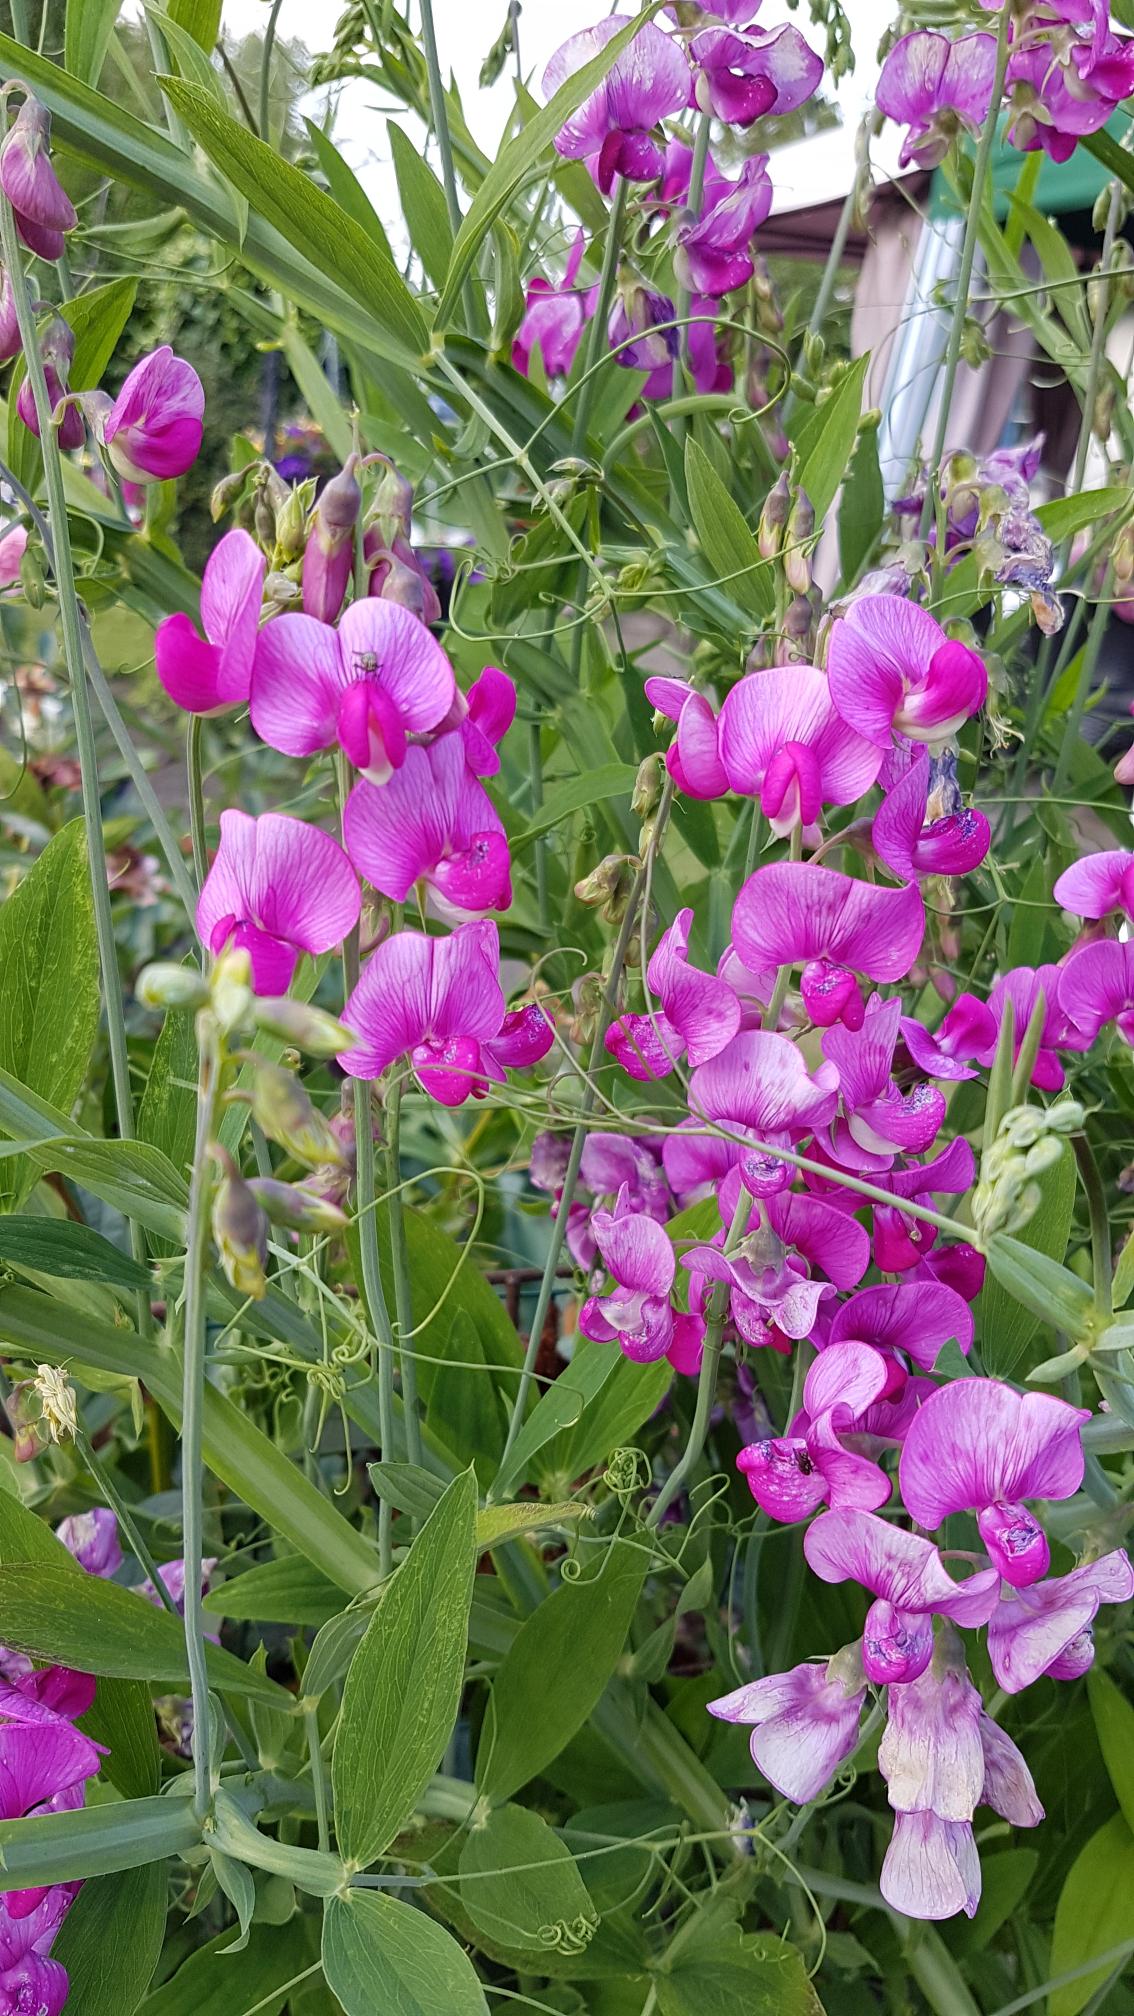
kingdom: Plantae
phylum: Tracheophyta
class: Magnoliopsida
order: Fabales
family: Fabaceae
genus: Lathyrus
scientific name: Lathyrus latifolius
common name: Flerårig ærteblomst
